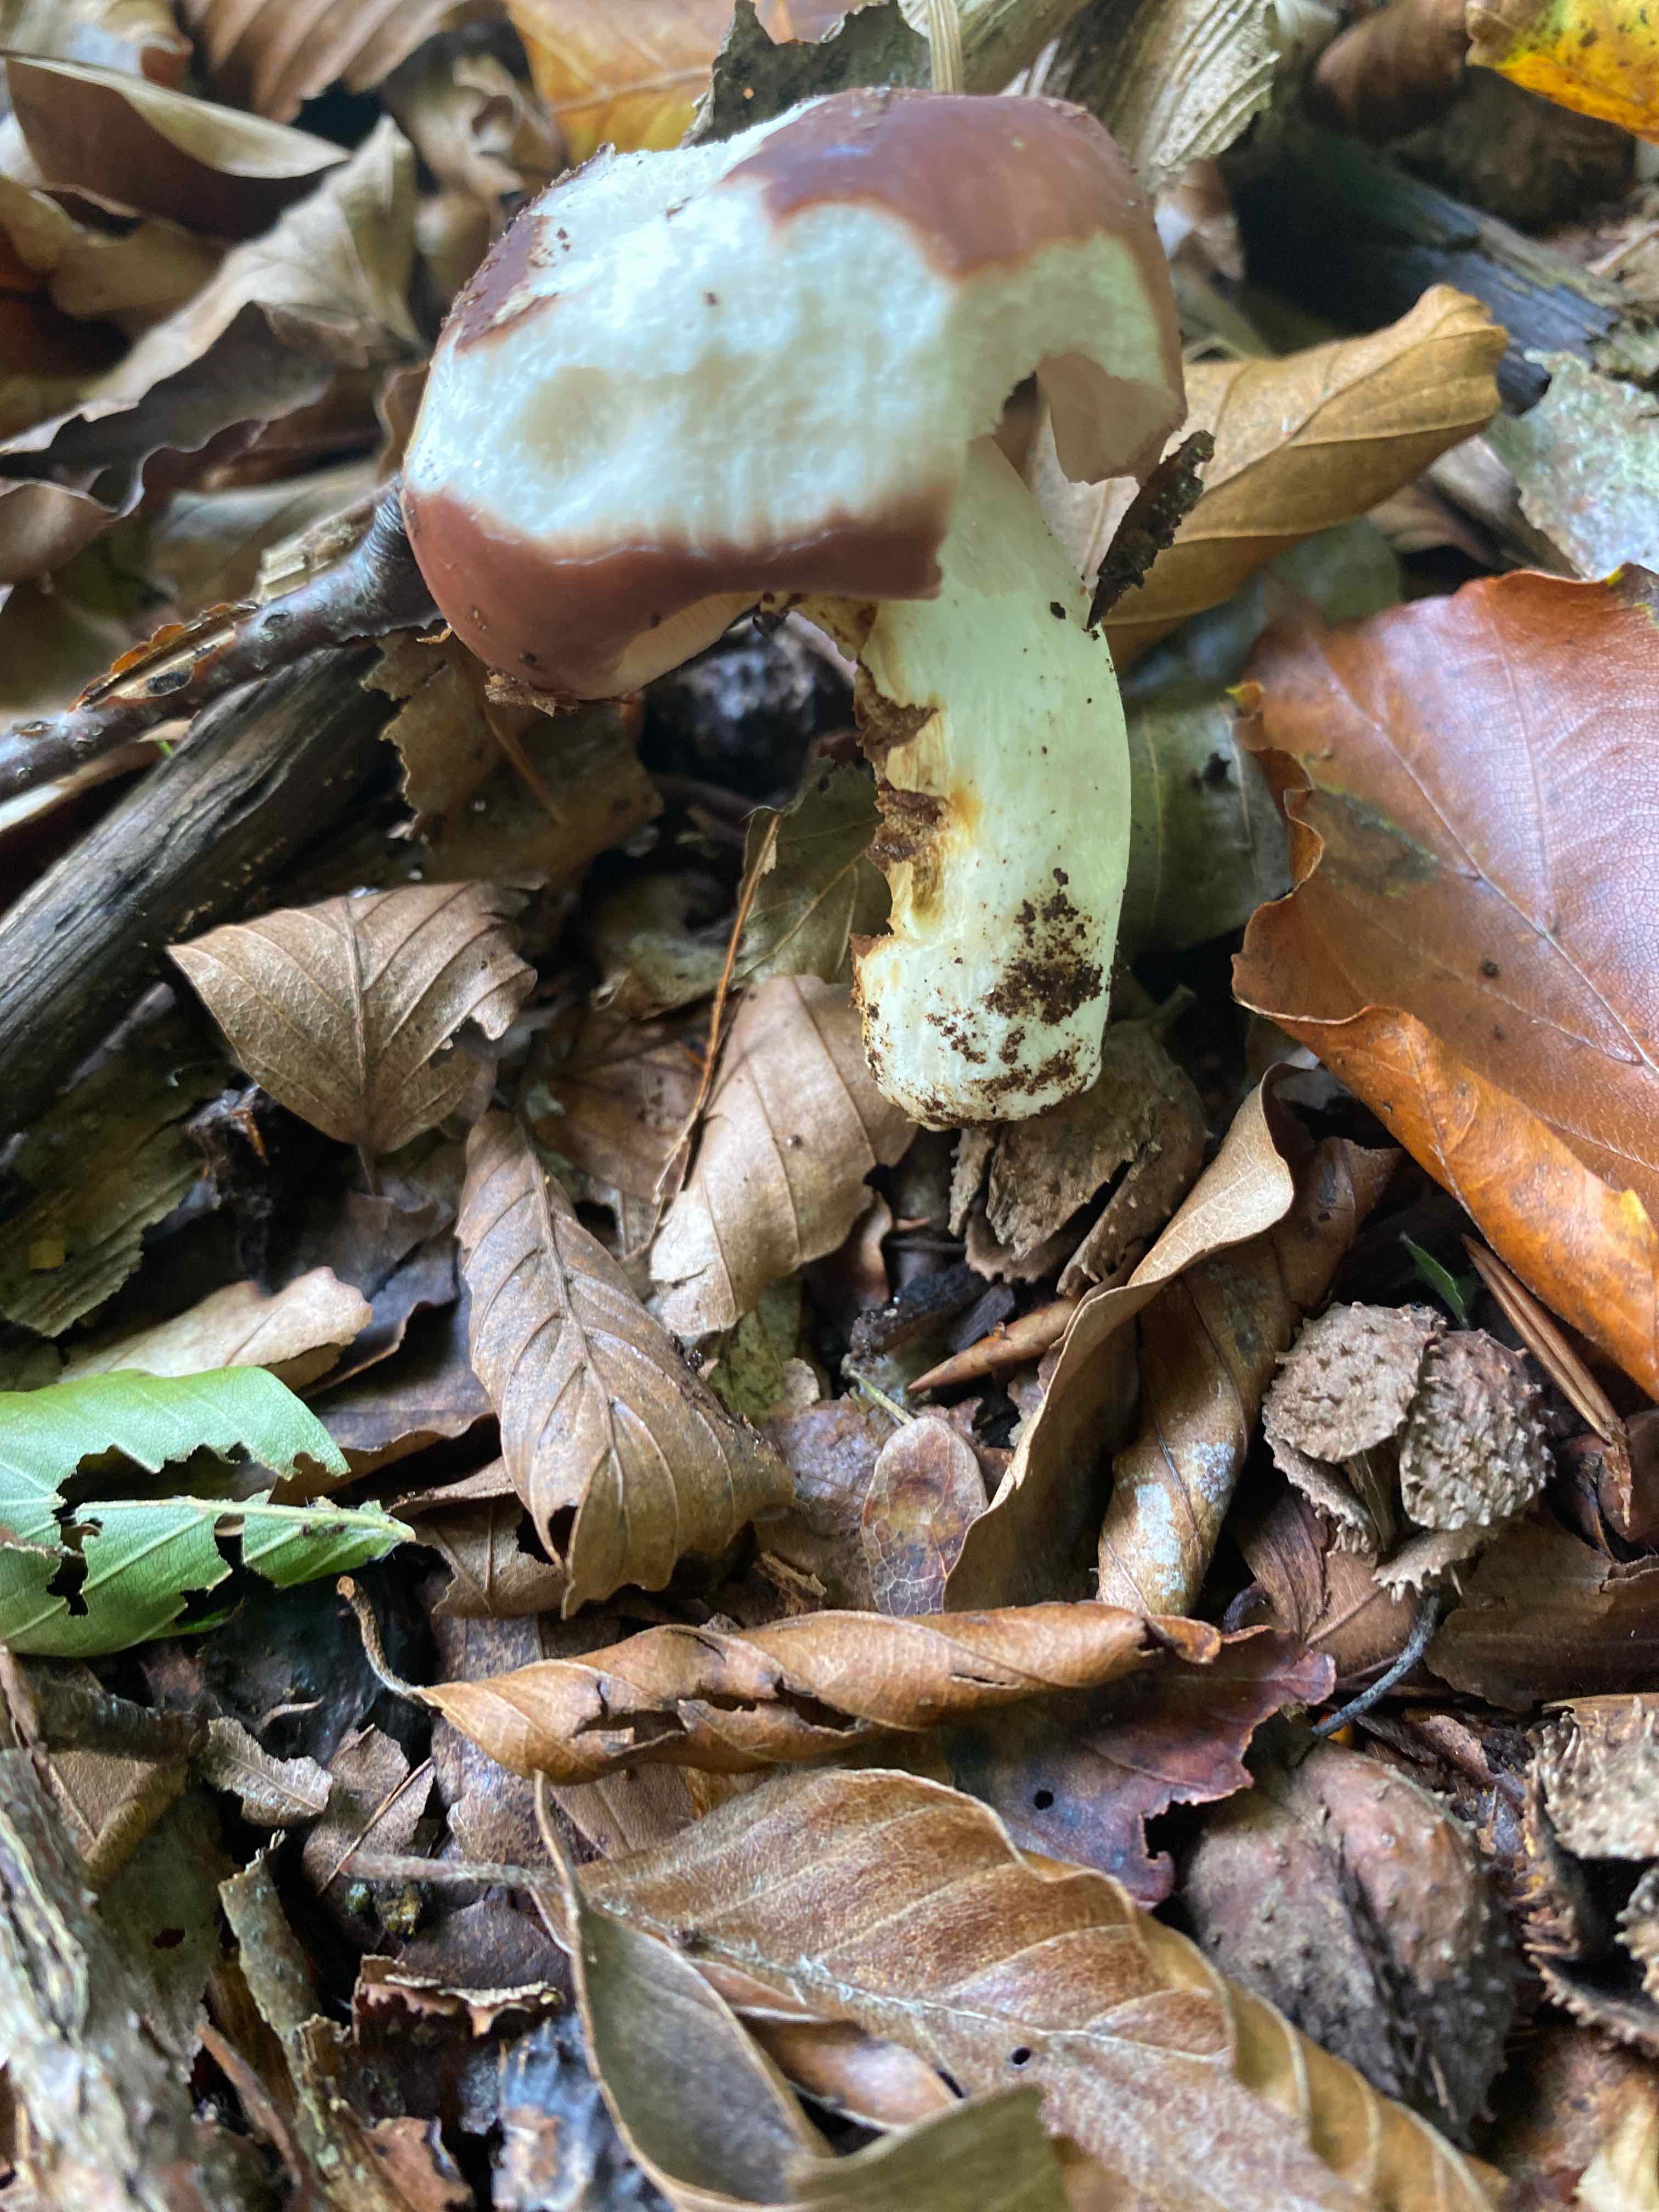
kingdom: Fungi
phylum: Basidiomycota
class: Agaricomycetes
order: Russulales
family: Russulaceae
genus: Russula
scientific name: Russula vesca
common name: spiselig skørhat
